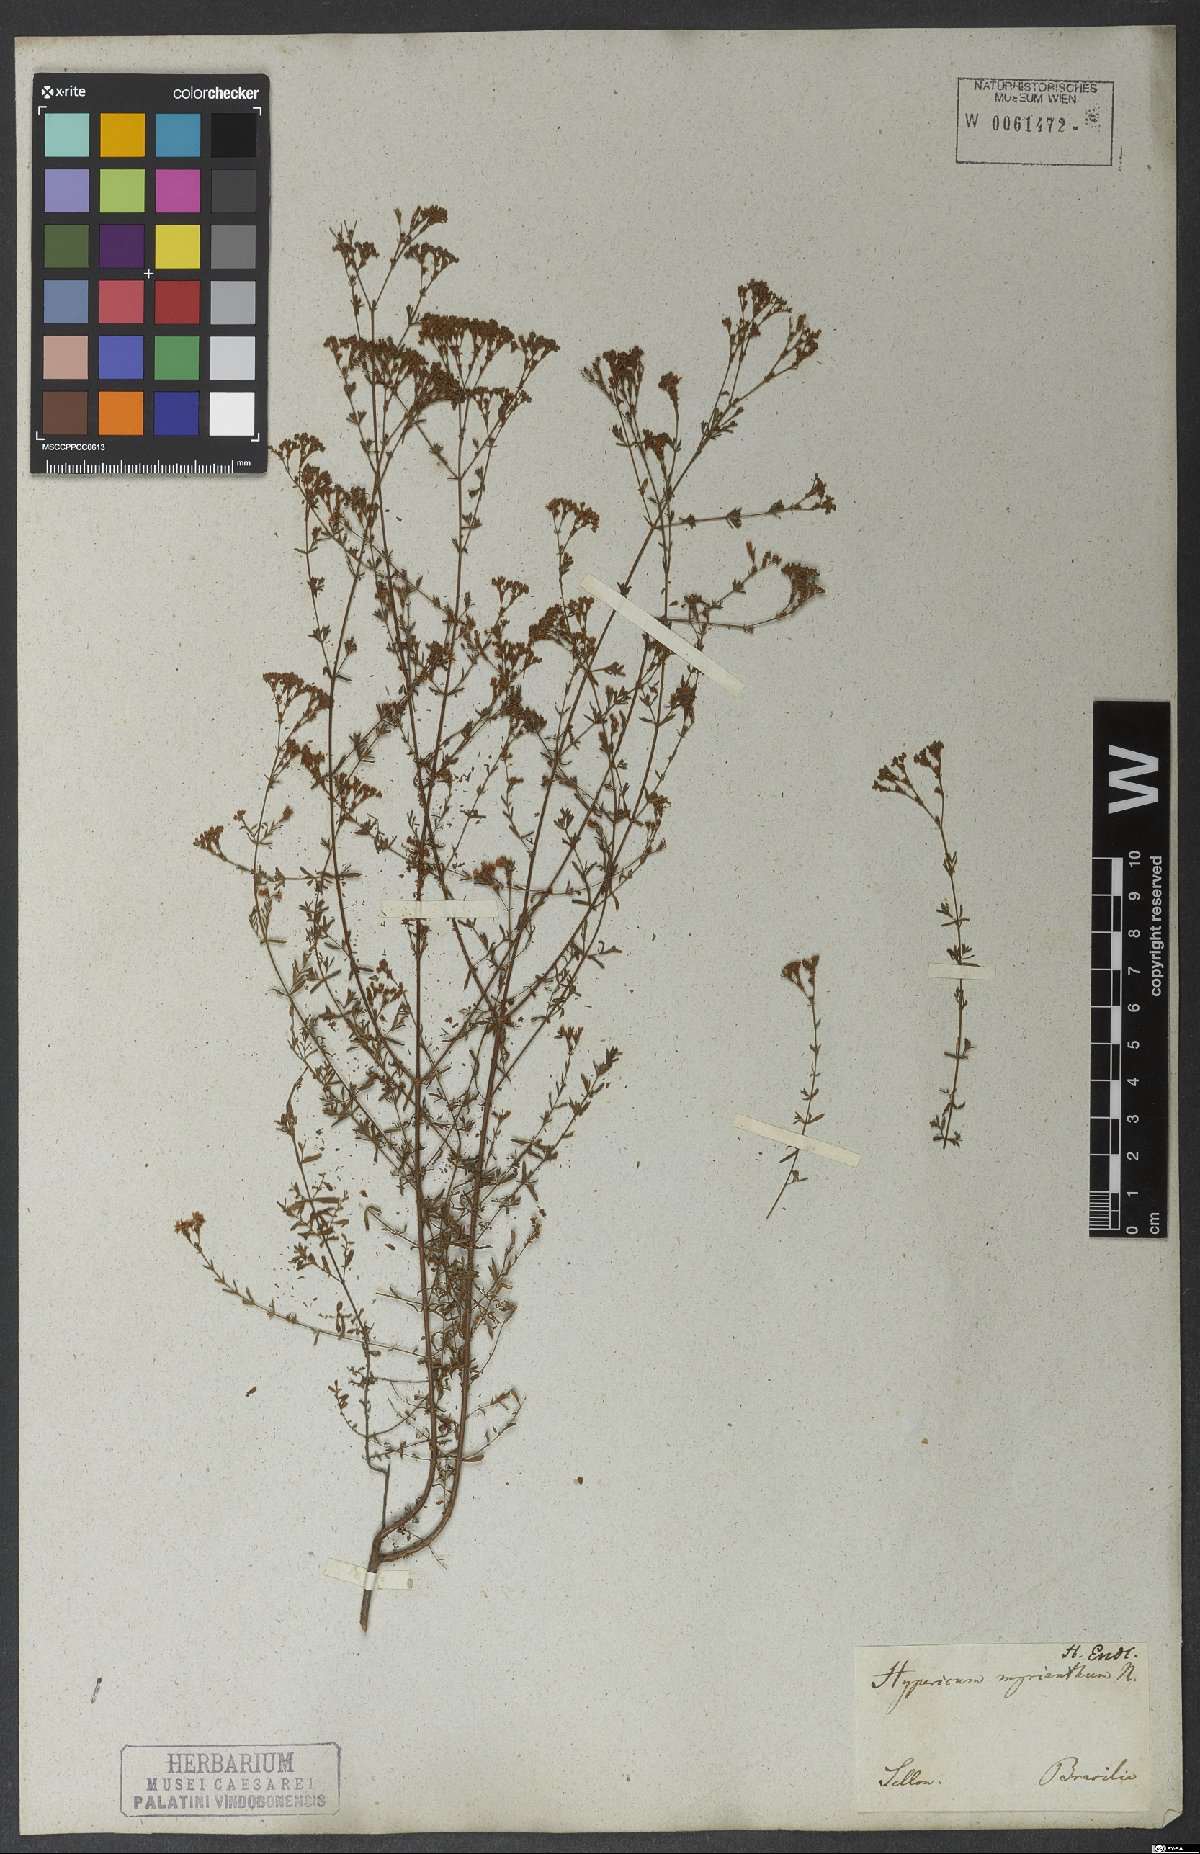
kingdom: Plantae
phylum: Tracheophyta
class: Magnoliopsida
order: Malpighiales
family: Hypericaceae
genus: Hypericum
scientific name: Hypericum myrianthum
